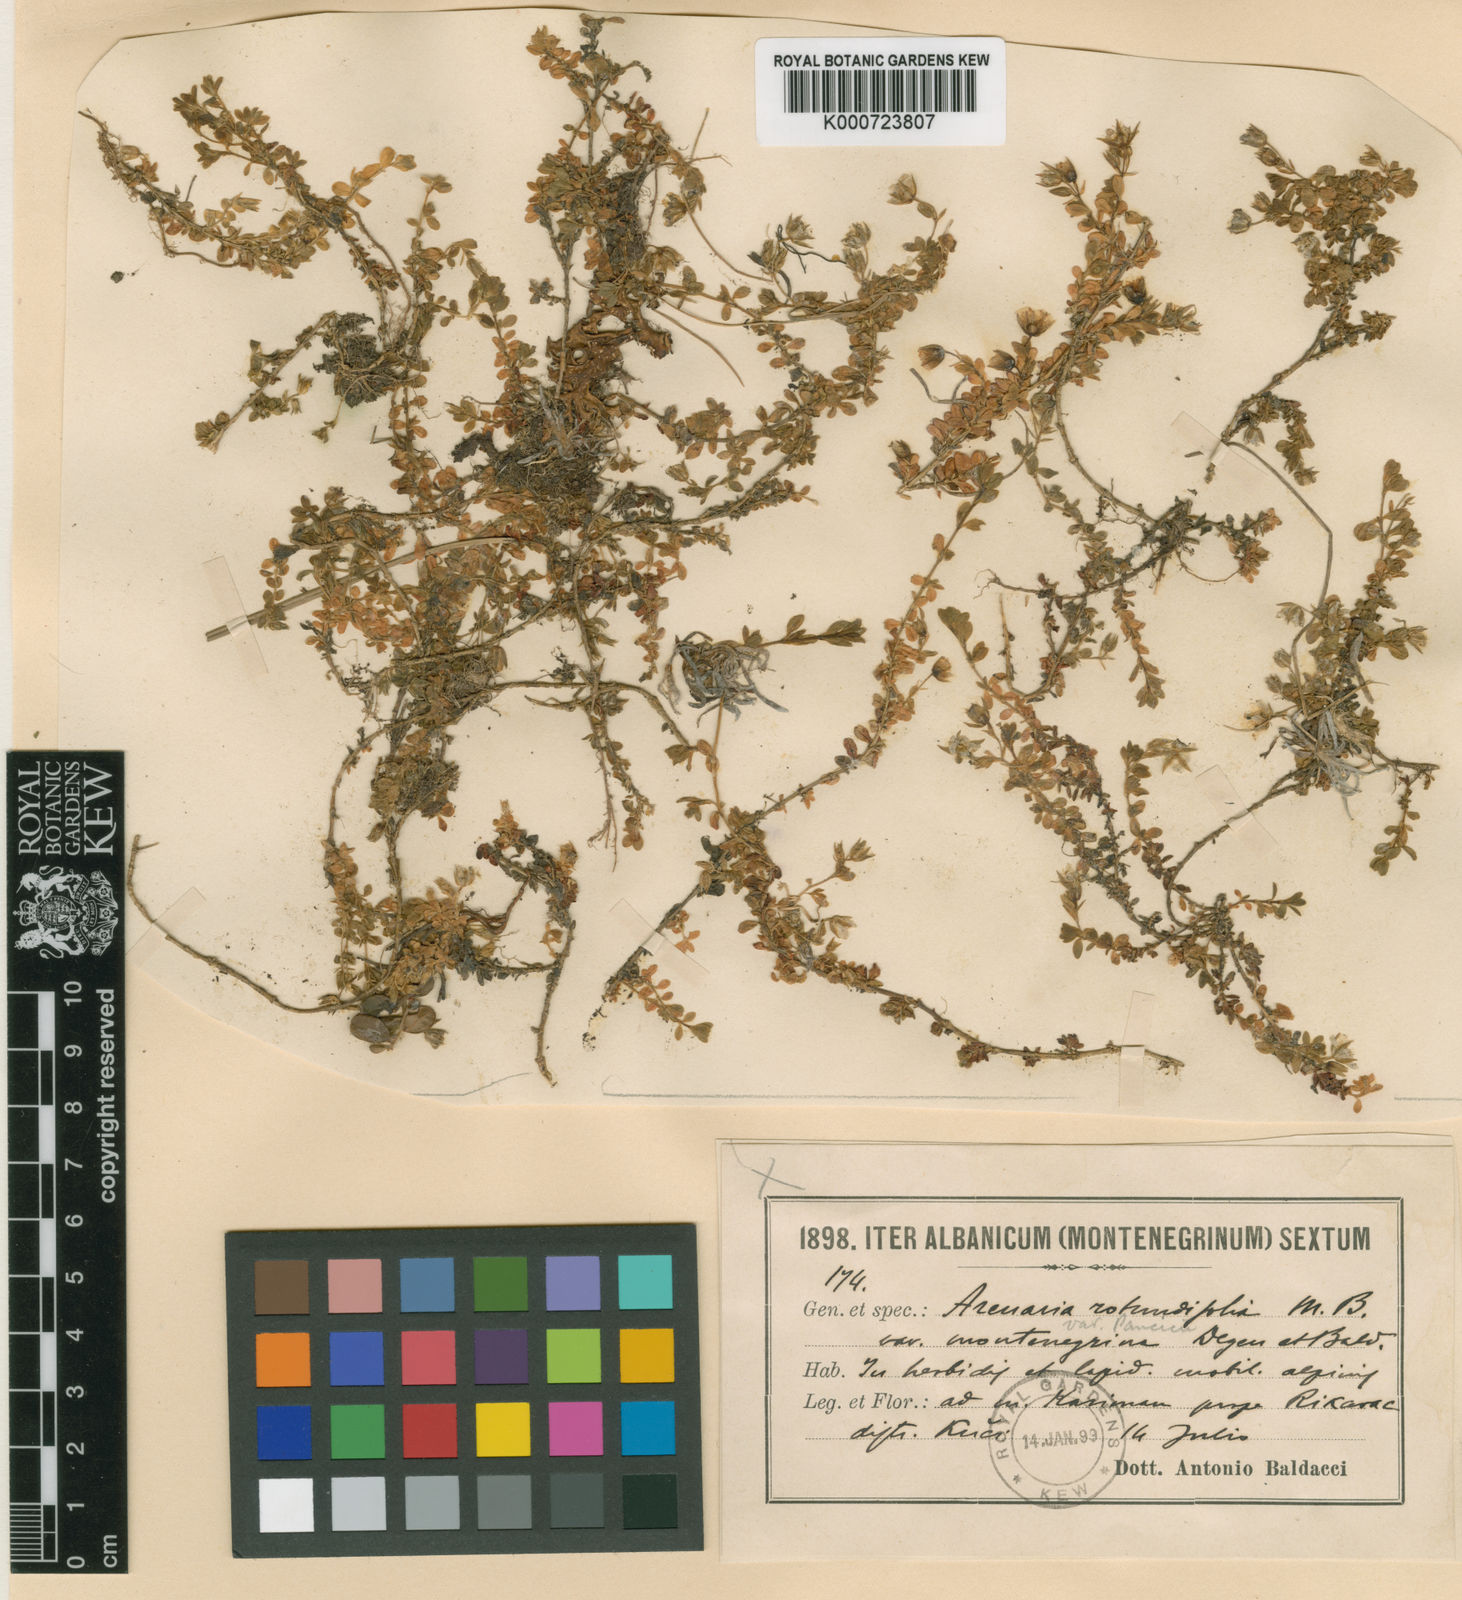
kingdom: Plantae
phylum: Tracheophyta
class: Magnoliopsida
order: Caryophyllales
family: Caryophyllaceae
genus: Arenaria
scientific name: Arenaria rotundifolia
